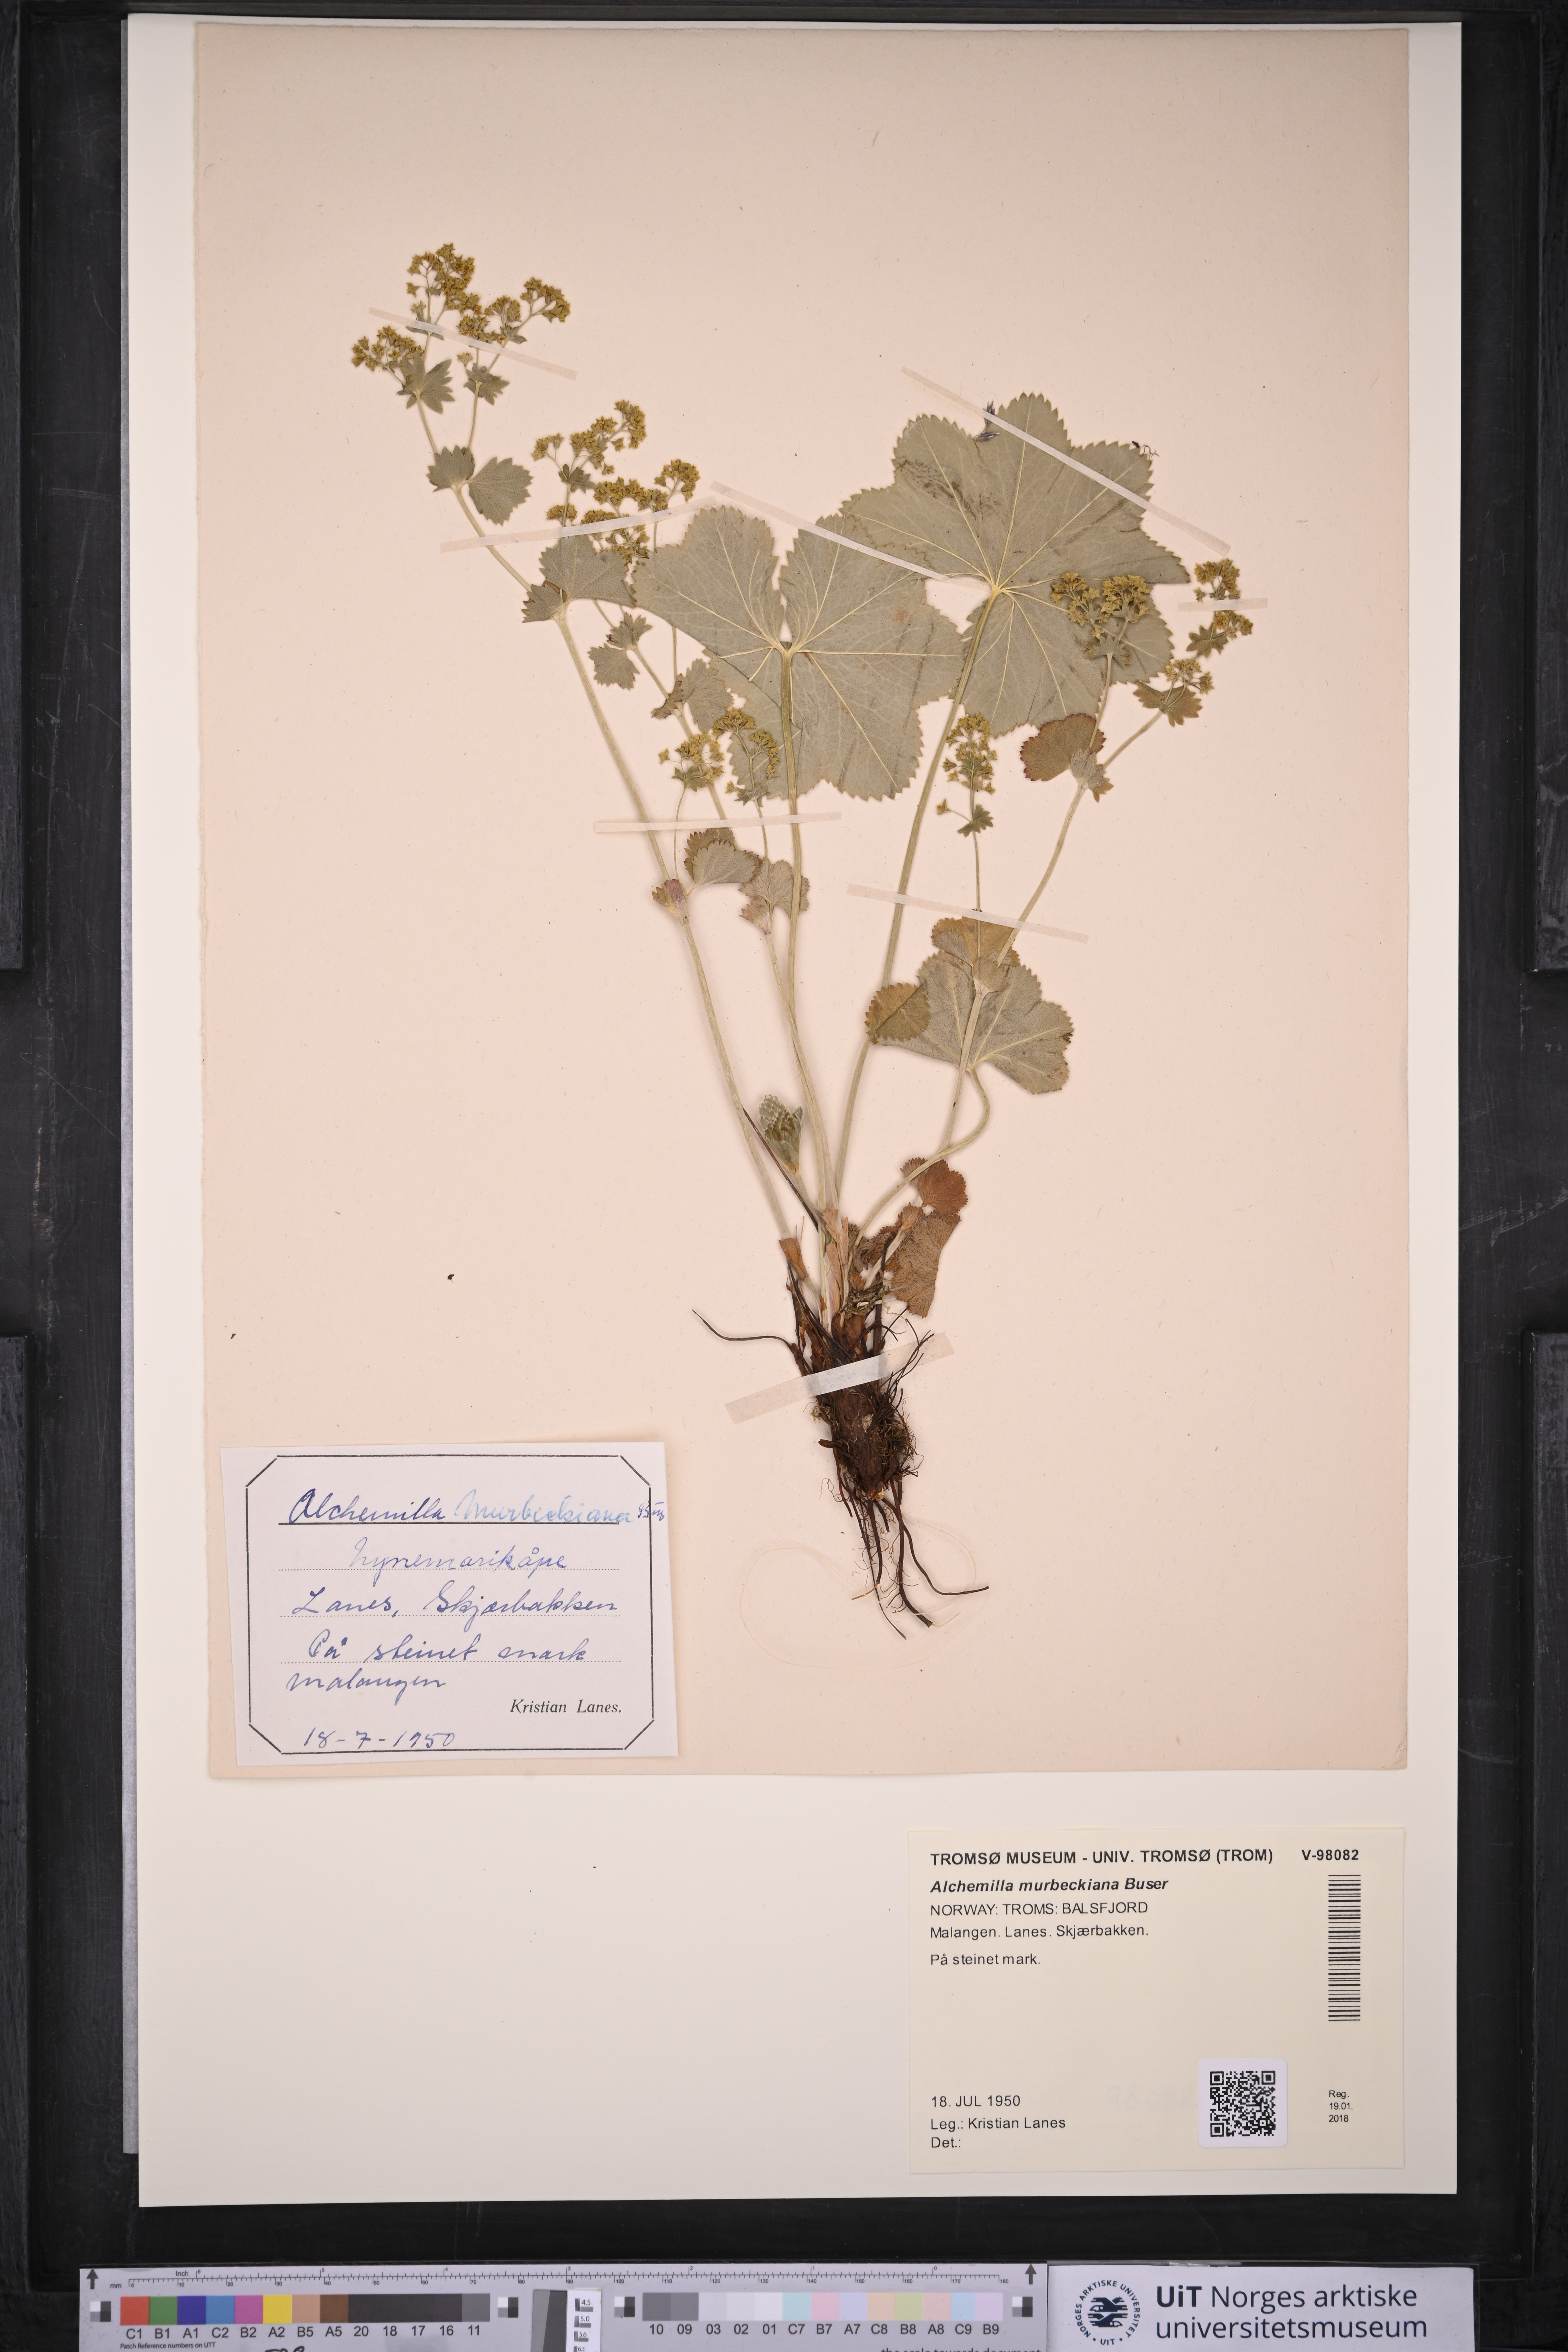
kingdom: Plantae
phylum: Tracheophyta
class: Magnoliopsida
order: Rosales
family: Rosaceae
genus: Alchemilla
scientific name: Alchemilla murbeckiana
